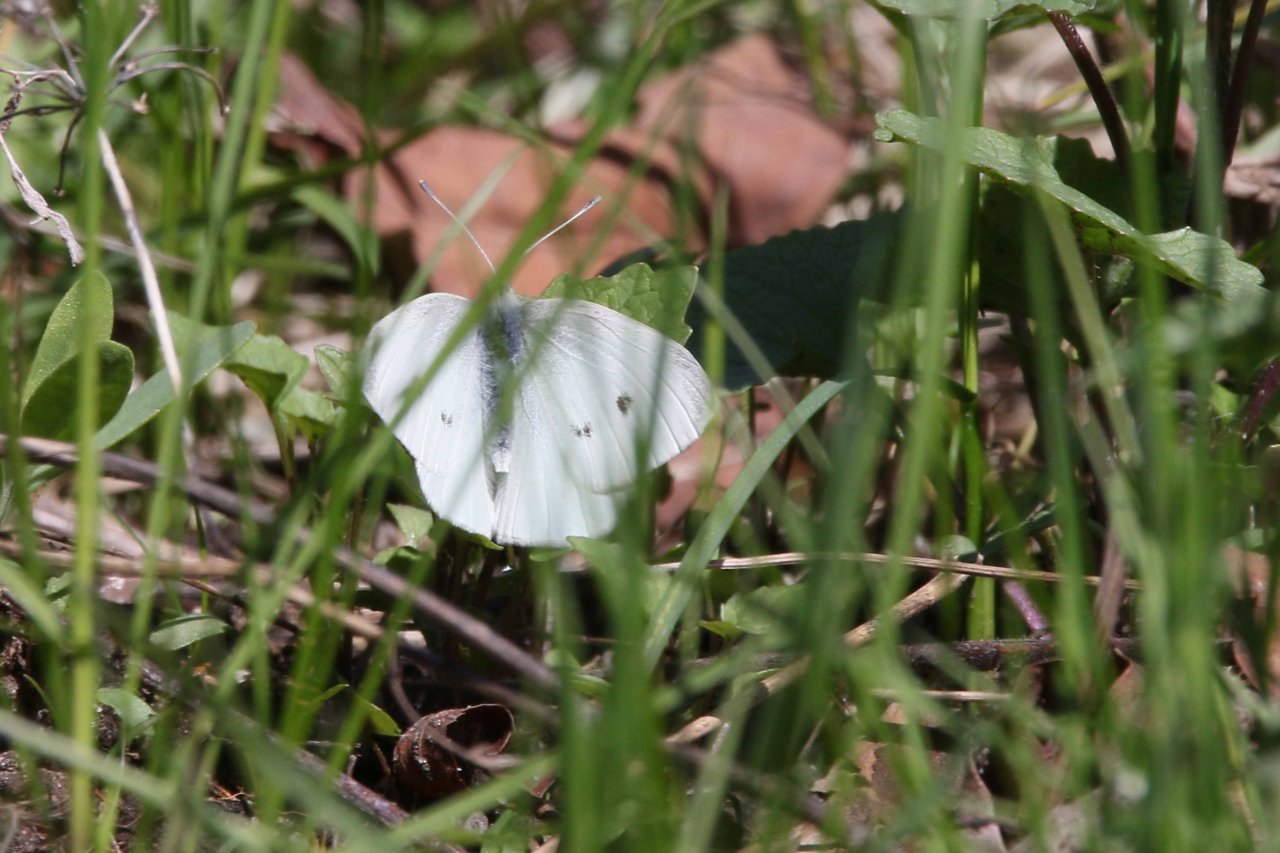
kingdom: Animalia
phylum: Arthropoda
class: Insecta
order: Lepidoptera
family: Pieridae
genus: Pieris
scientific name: Pieris rapae
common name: Cabbage White
